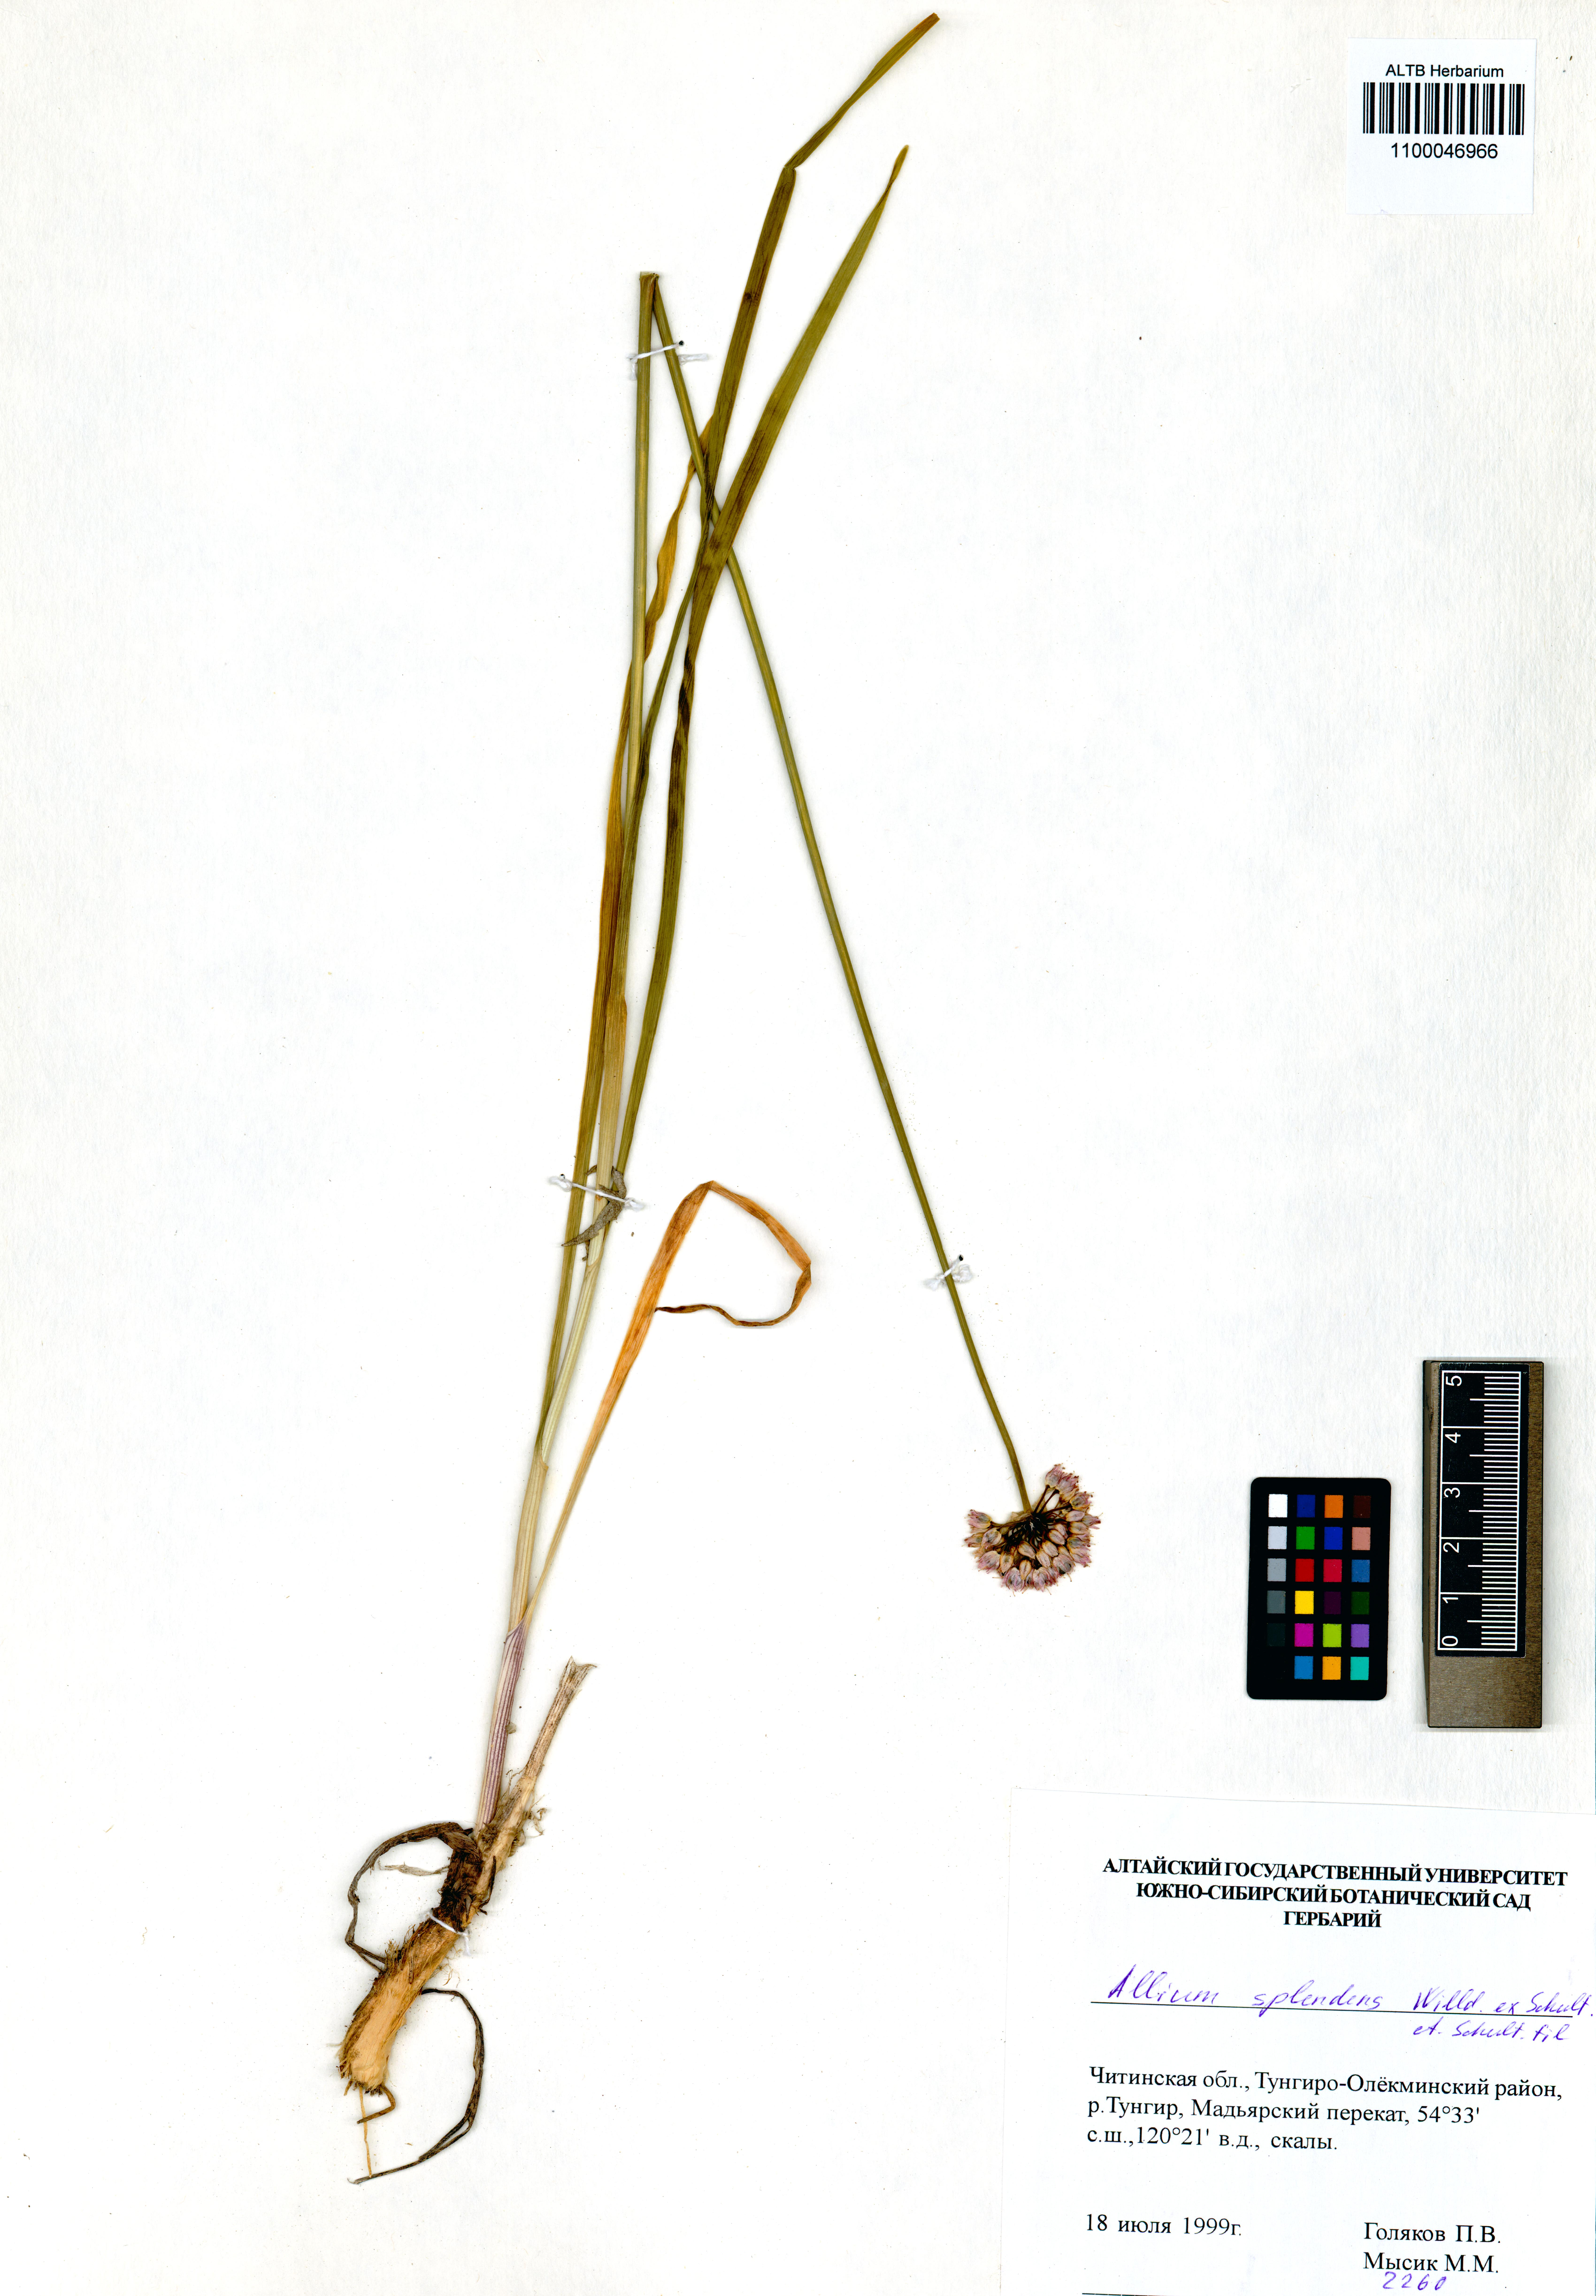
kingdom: Plantae
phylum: Tracheophyta
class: Liliopsida
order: Asparagales
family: Amaryllidaceae
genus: Allium
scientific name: Allium splendens
